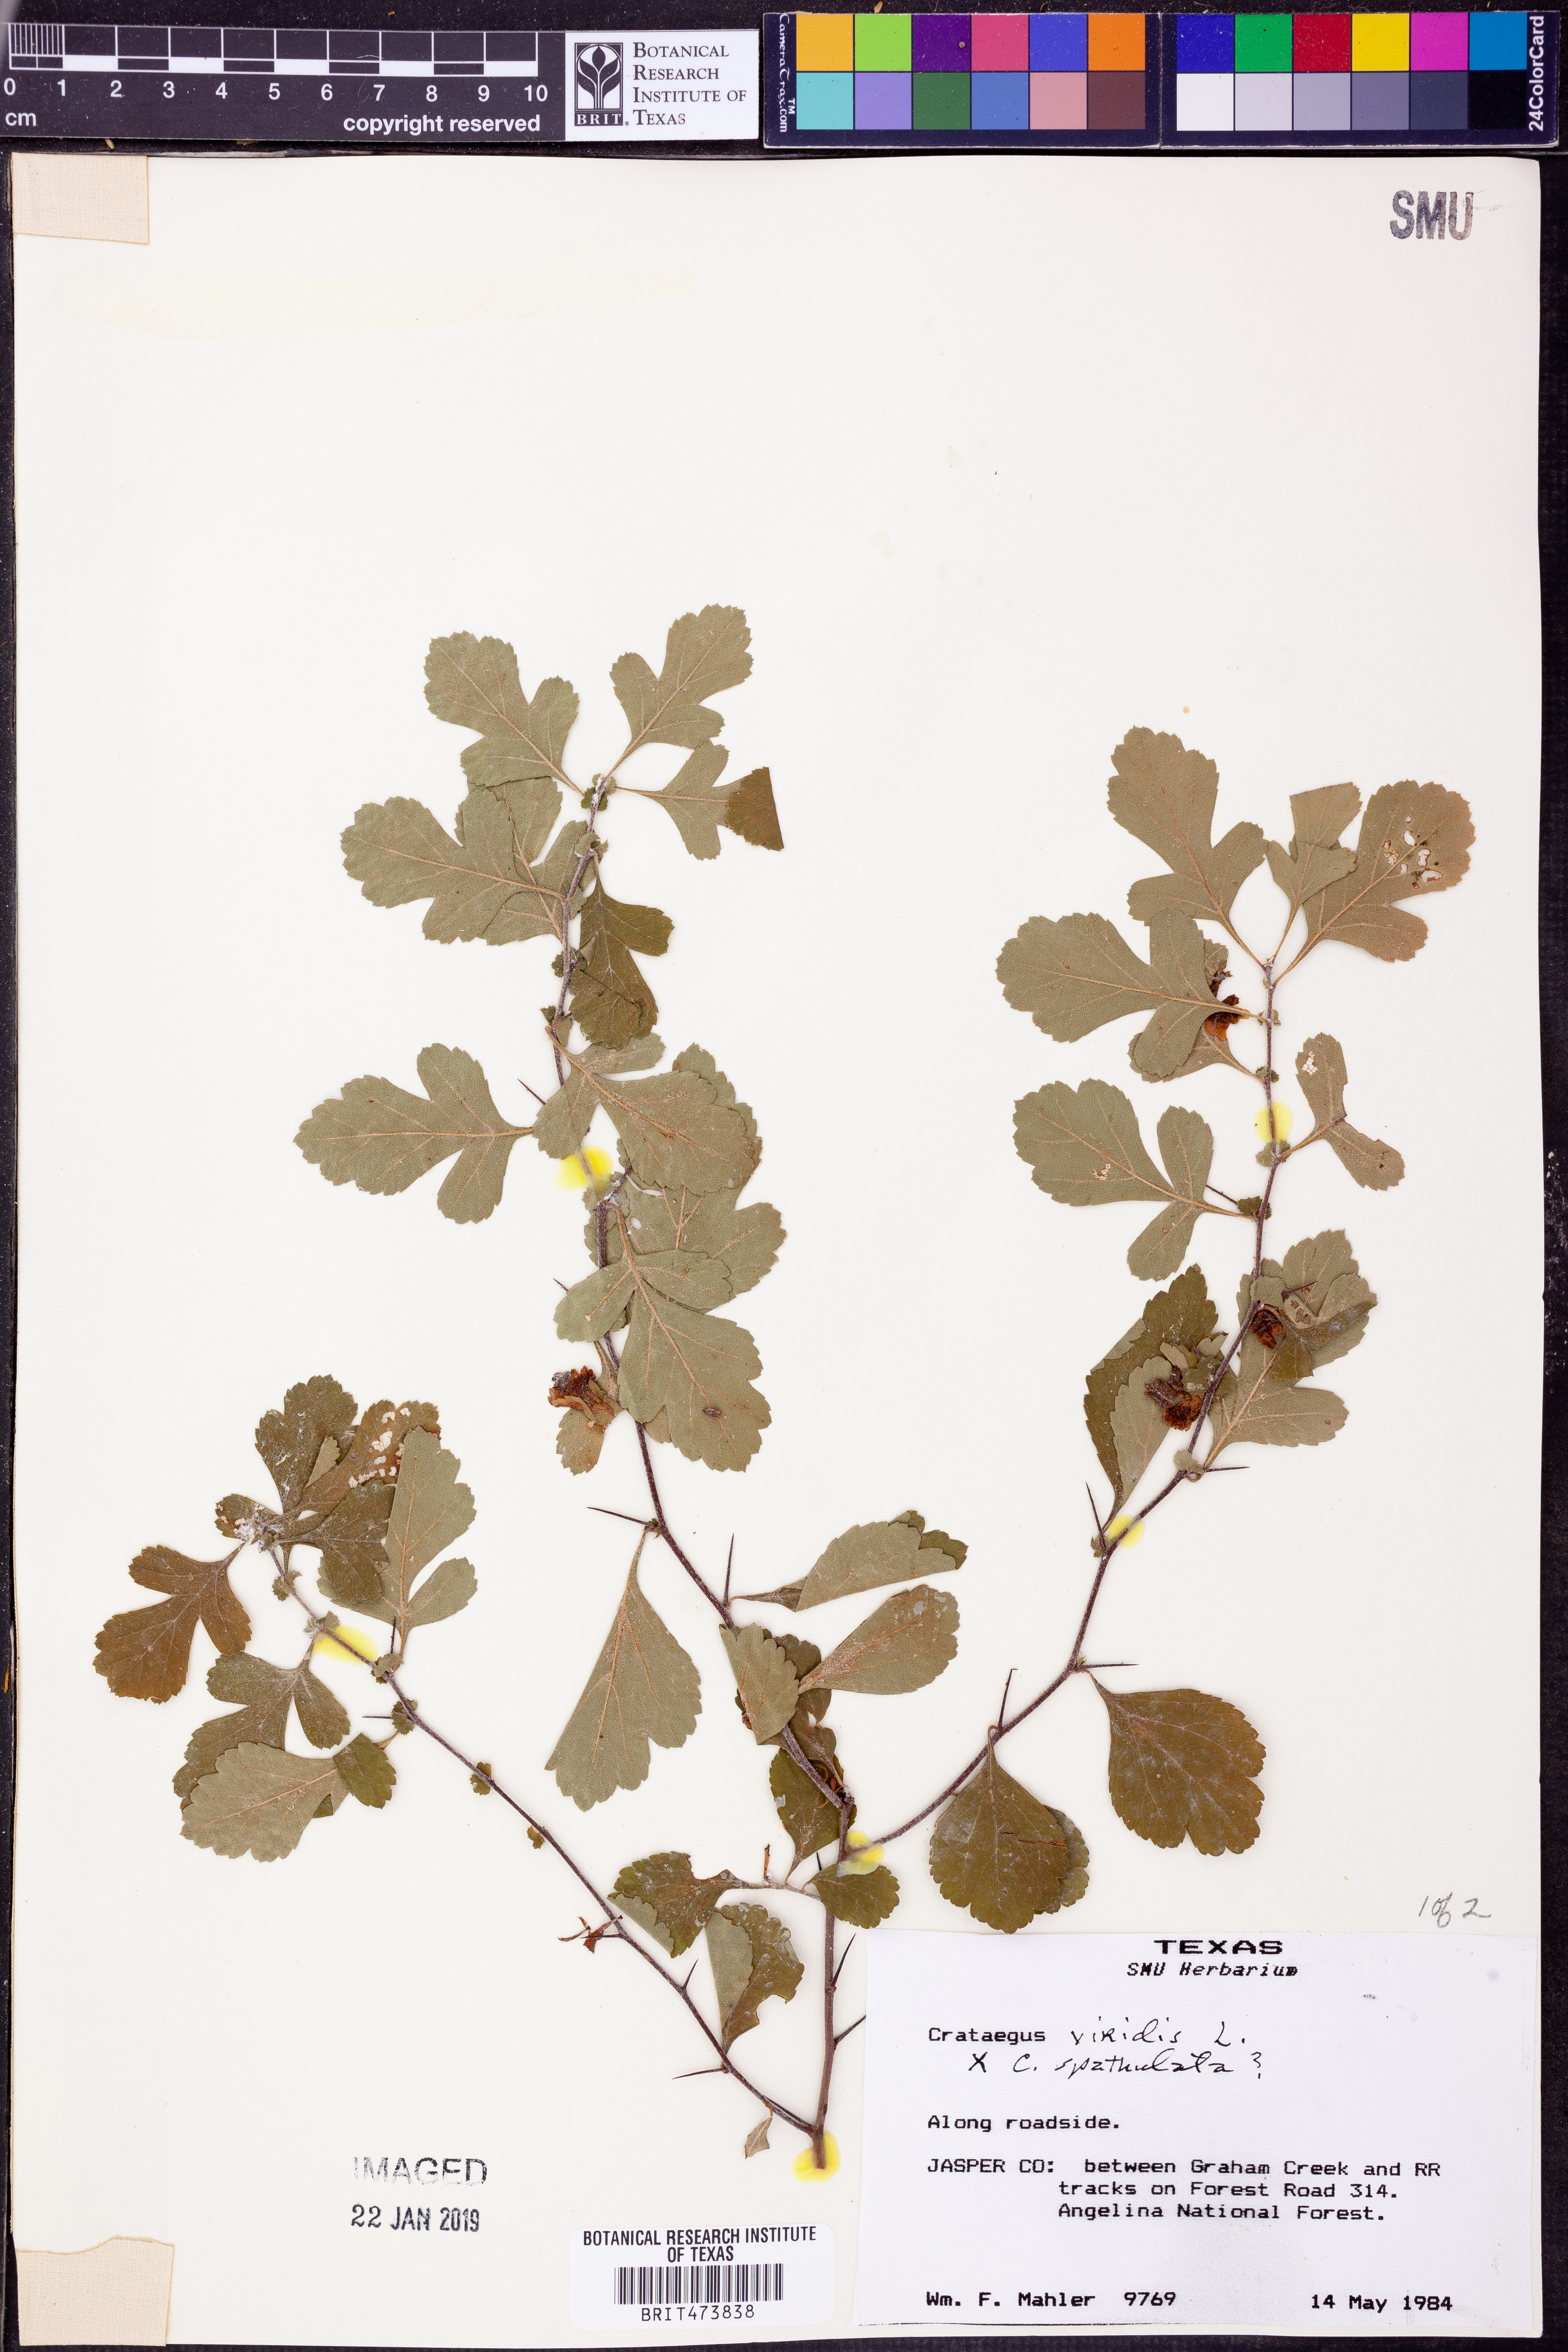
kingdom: Plantae
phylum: Tracheophyta
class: Magnoliopsida
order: Rosales
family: Rosaceae
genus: Crataegus
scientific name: Crataegus viridis
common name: Southernthorn
